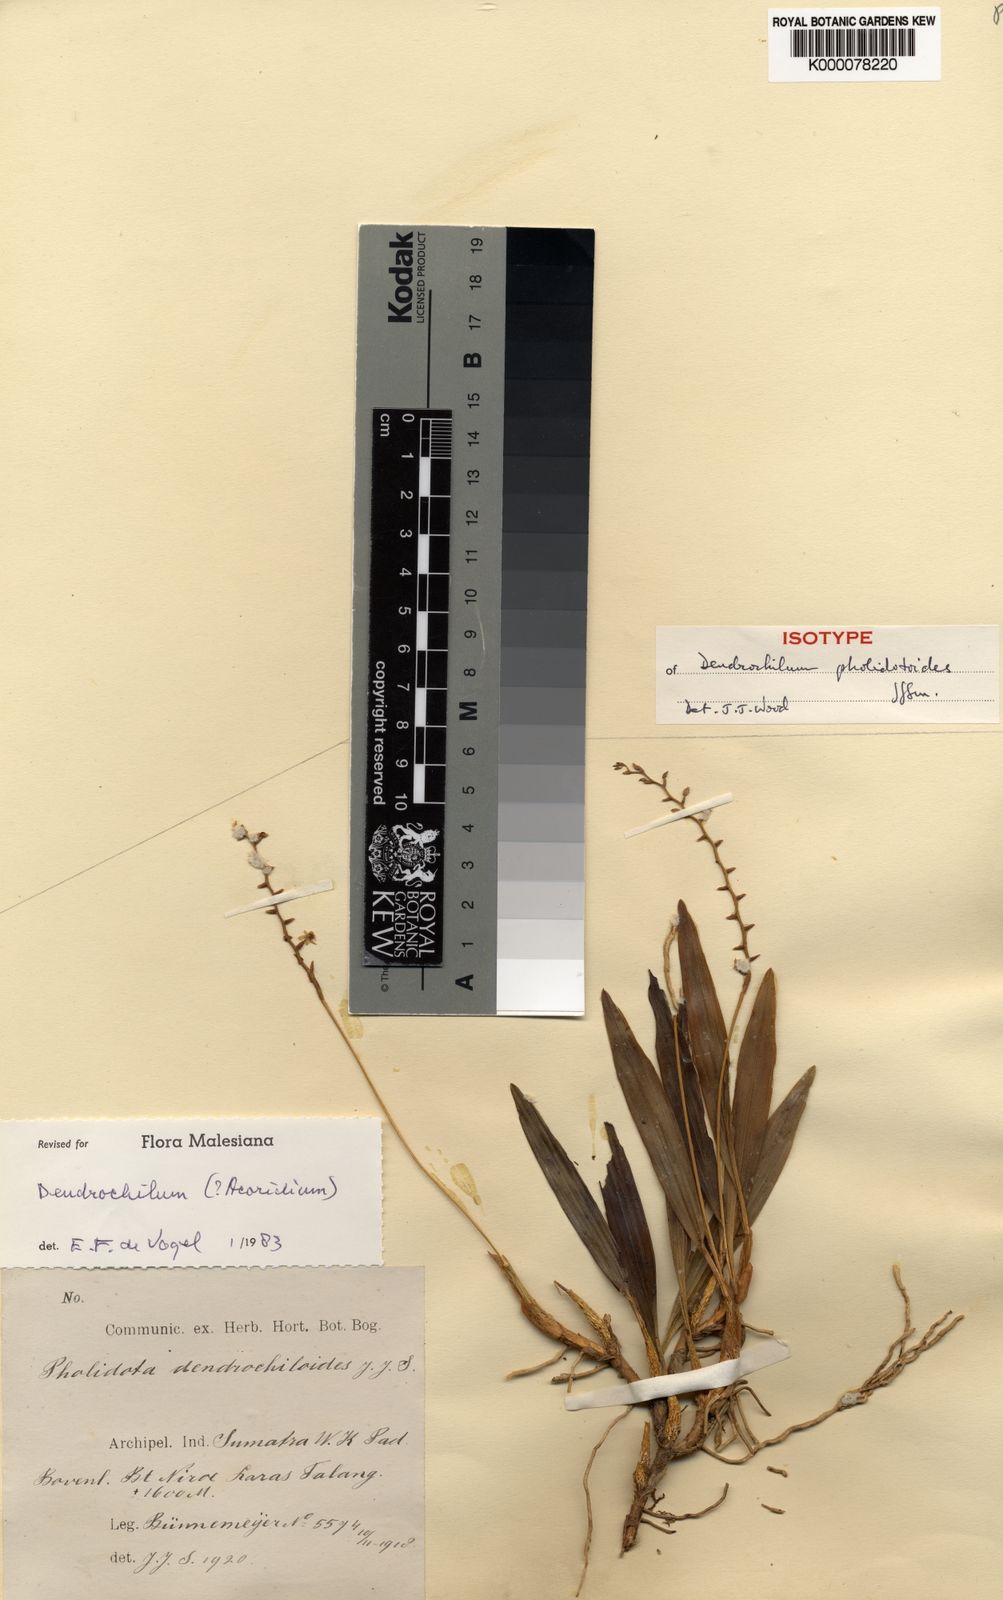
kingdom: Plantae
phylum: Tracheophyta
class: Liliopsida
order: Asparagales
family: Orchidaceae
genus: Coelogyne
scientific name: Coelogyne irawatiana
